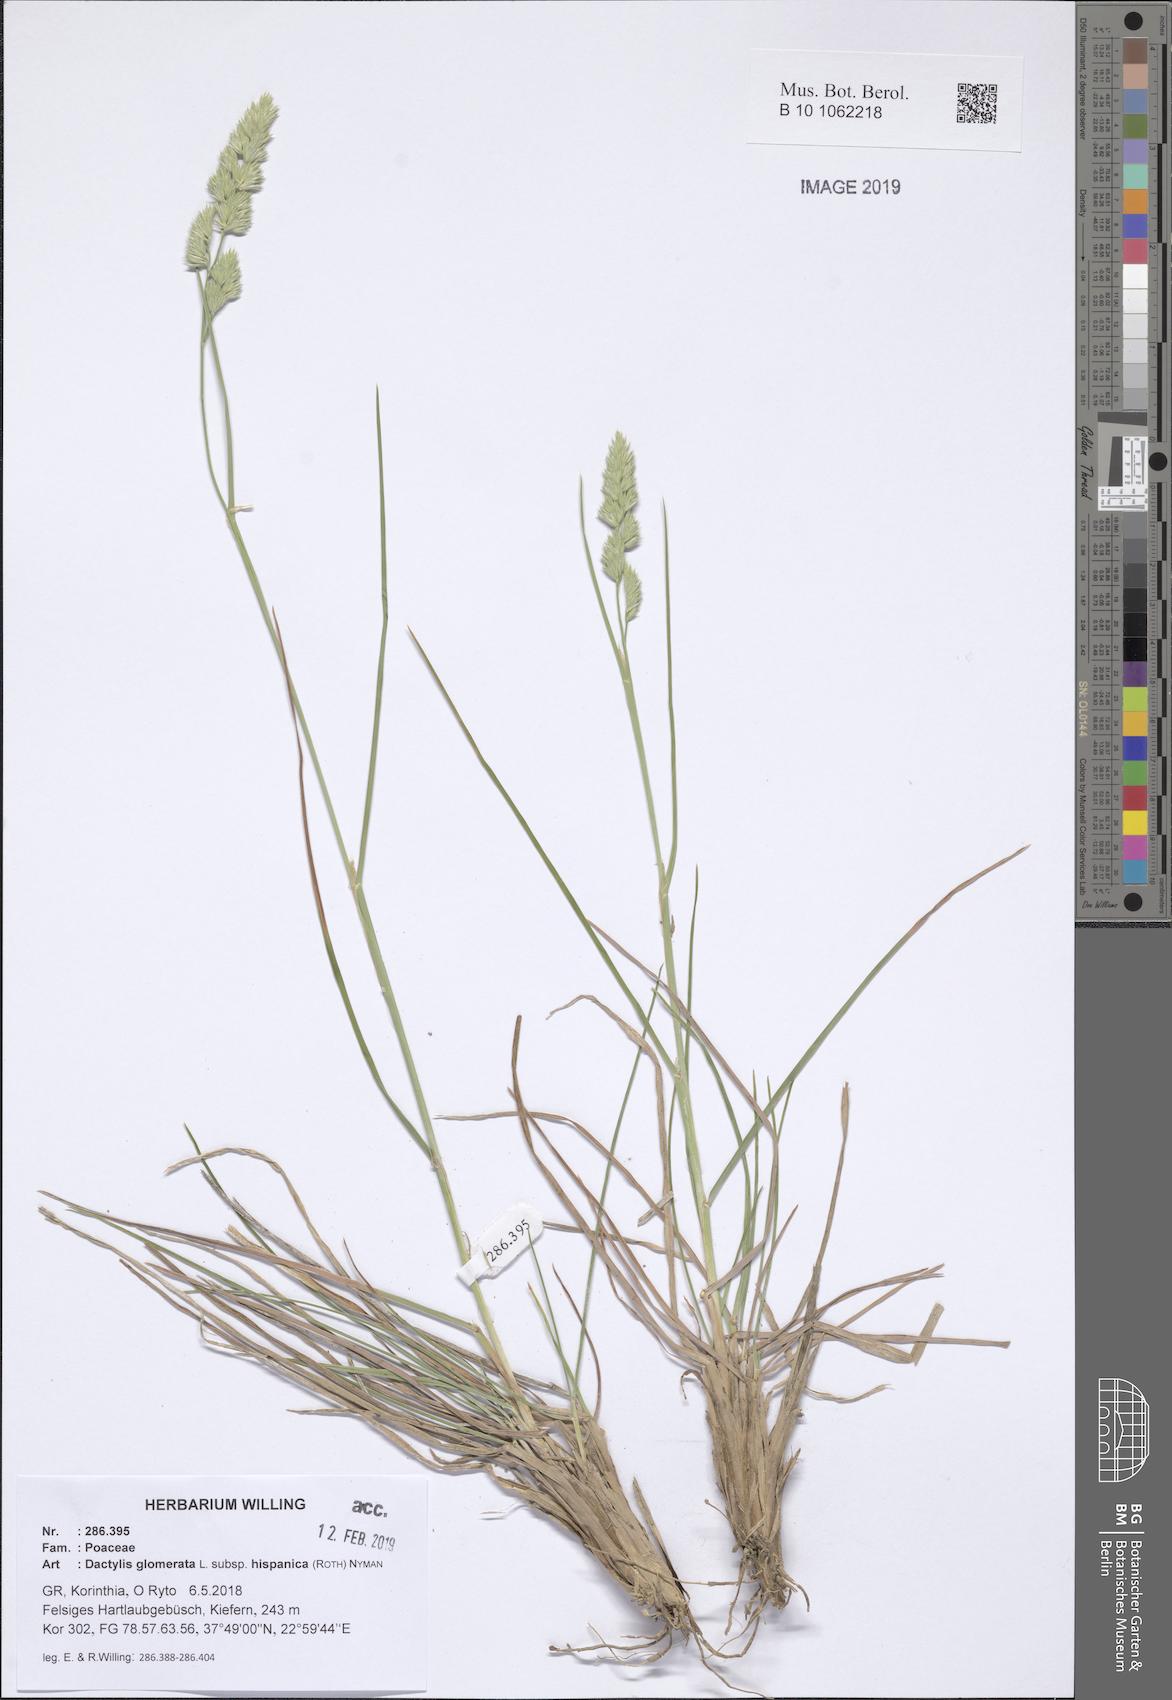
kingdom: Plantae
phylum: Tracheophyta
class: Liliopsida
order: Poales
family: Poaceae
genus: Dactylis
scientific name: Dactylis glomerata
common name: Orchardgrass
